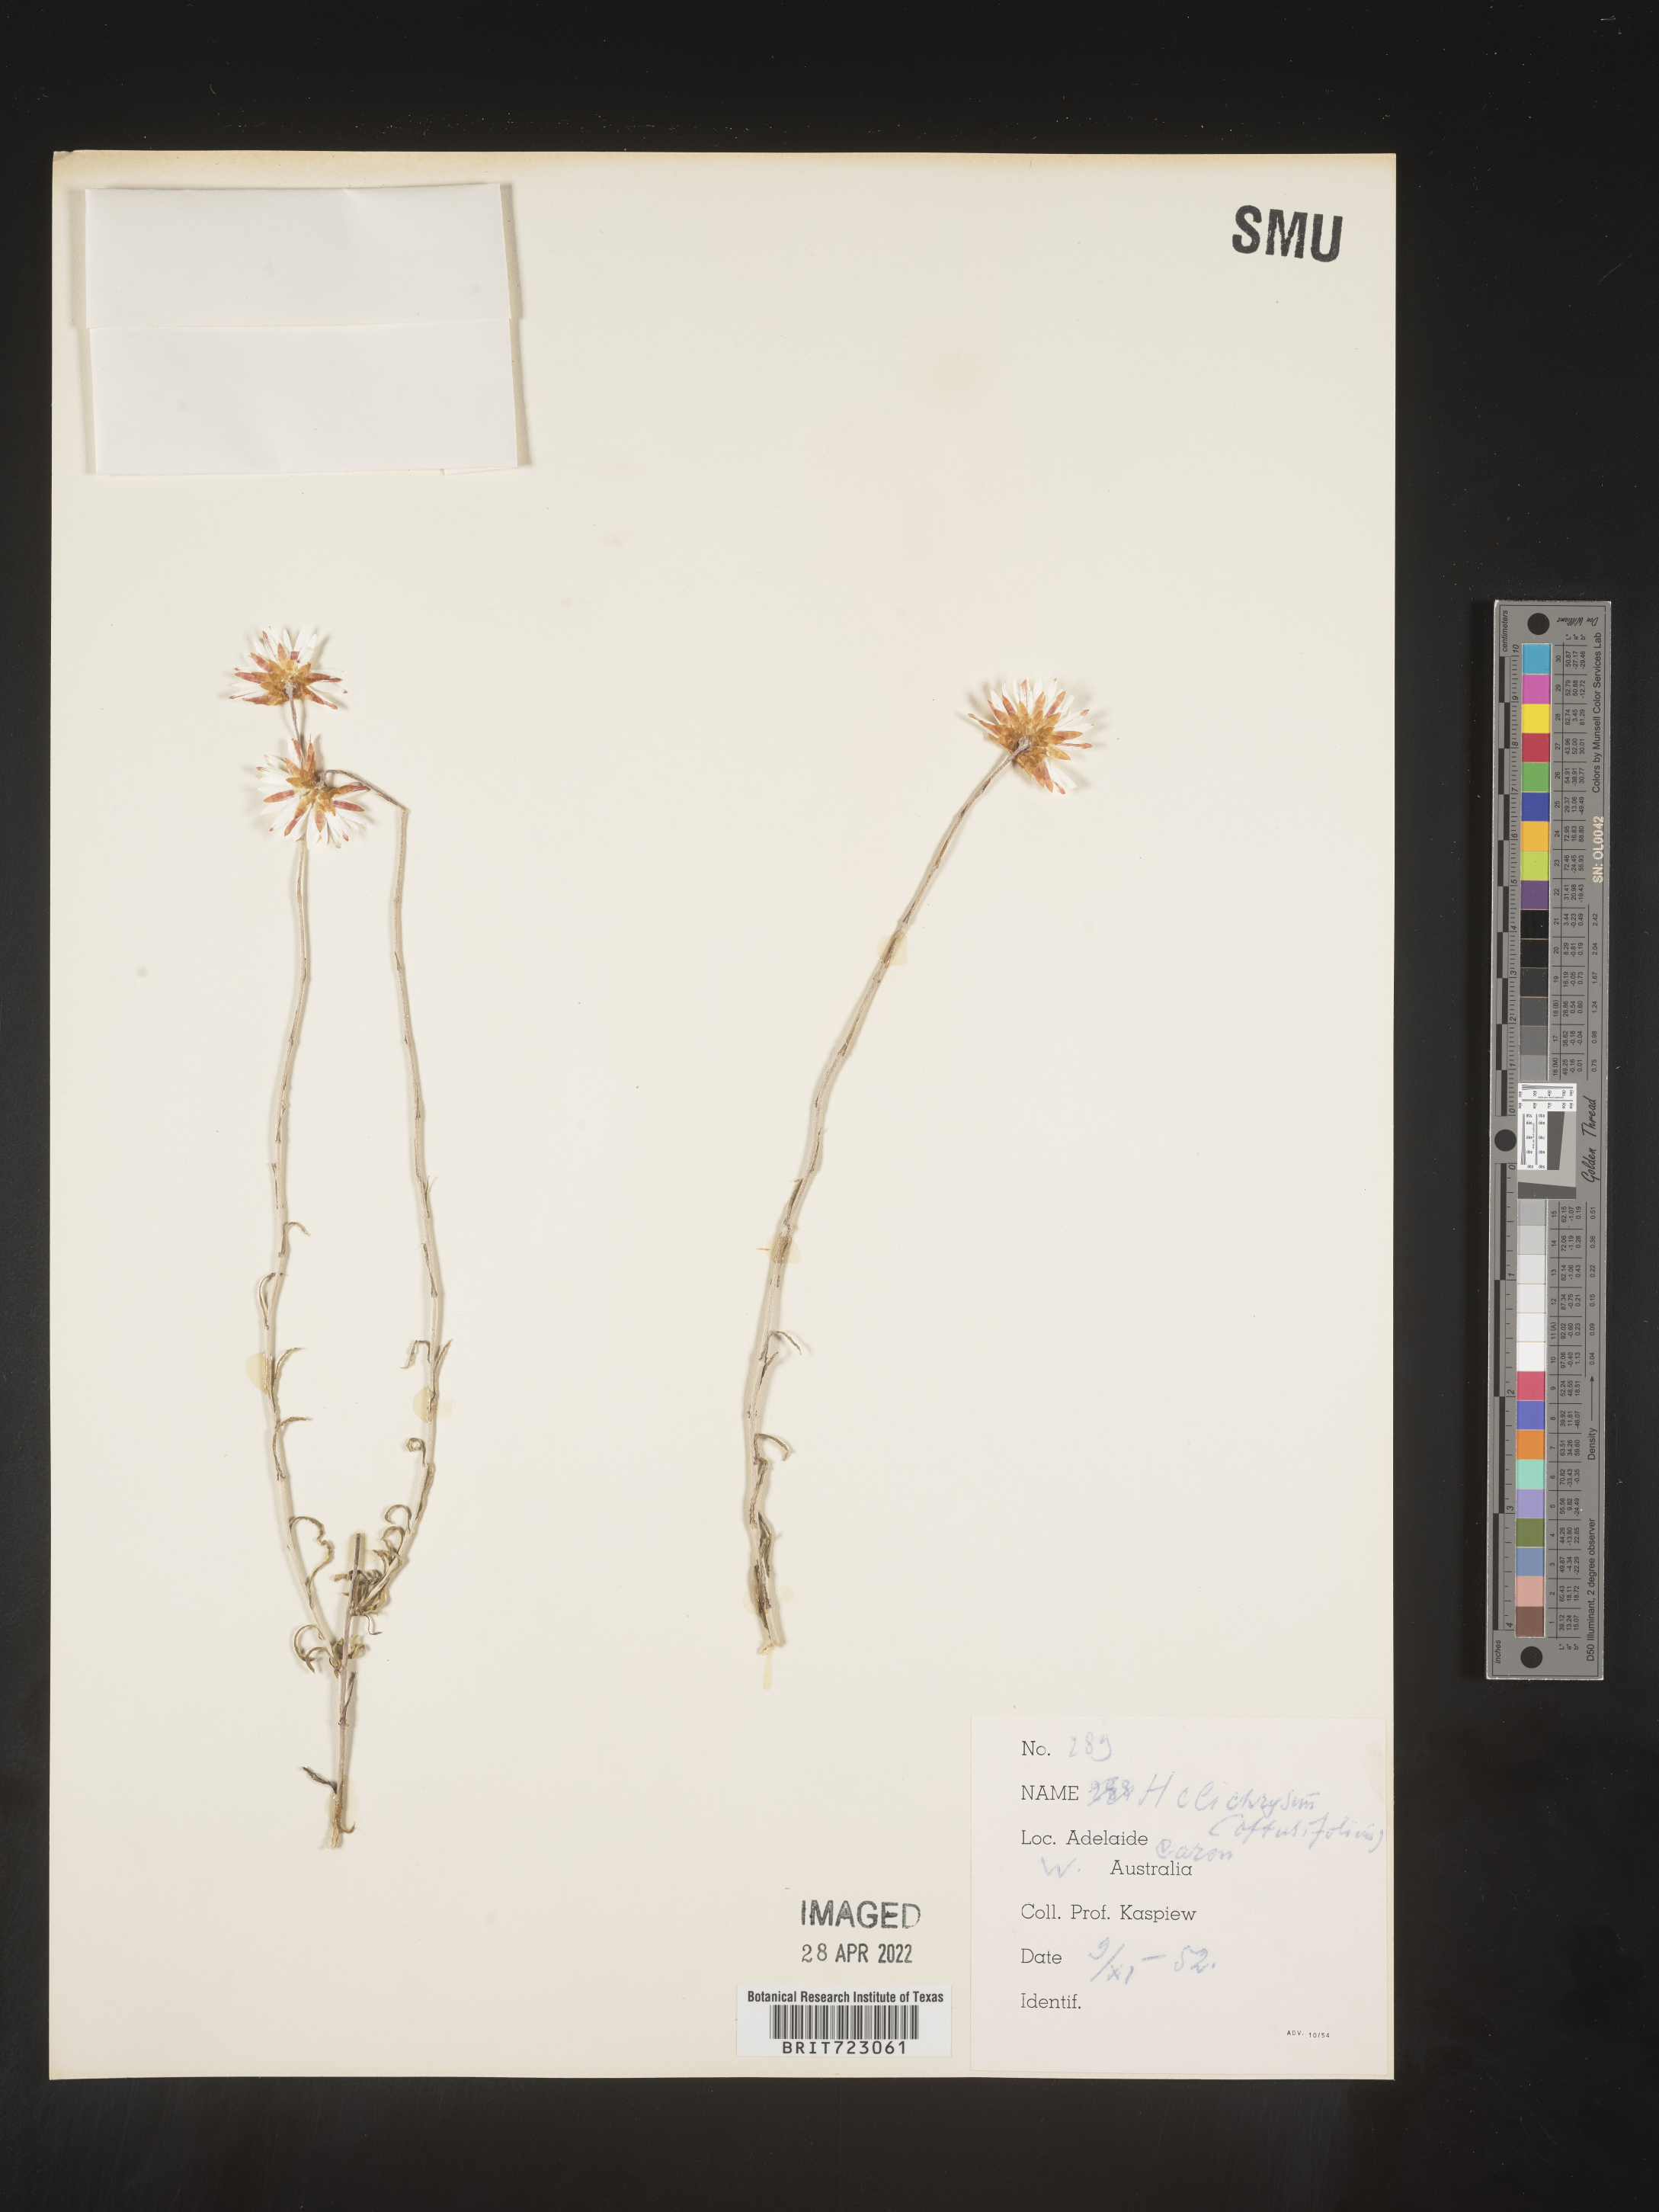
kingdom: Plantae
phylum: Tracheophyta
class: Magnoliopsida
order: Asterales
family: Asteraceae
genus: Helichrysum
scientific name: Helichrysum
